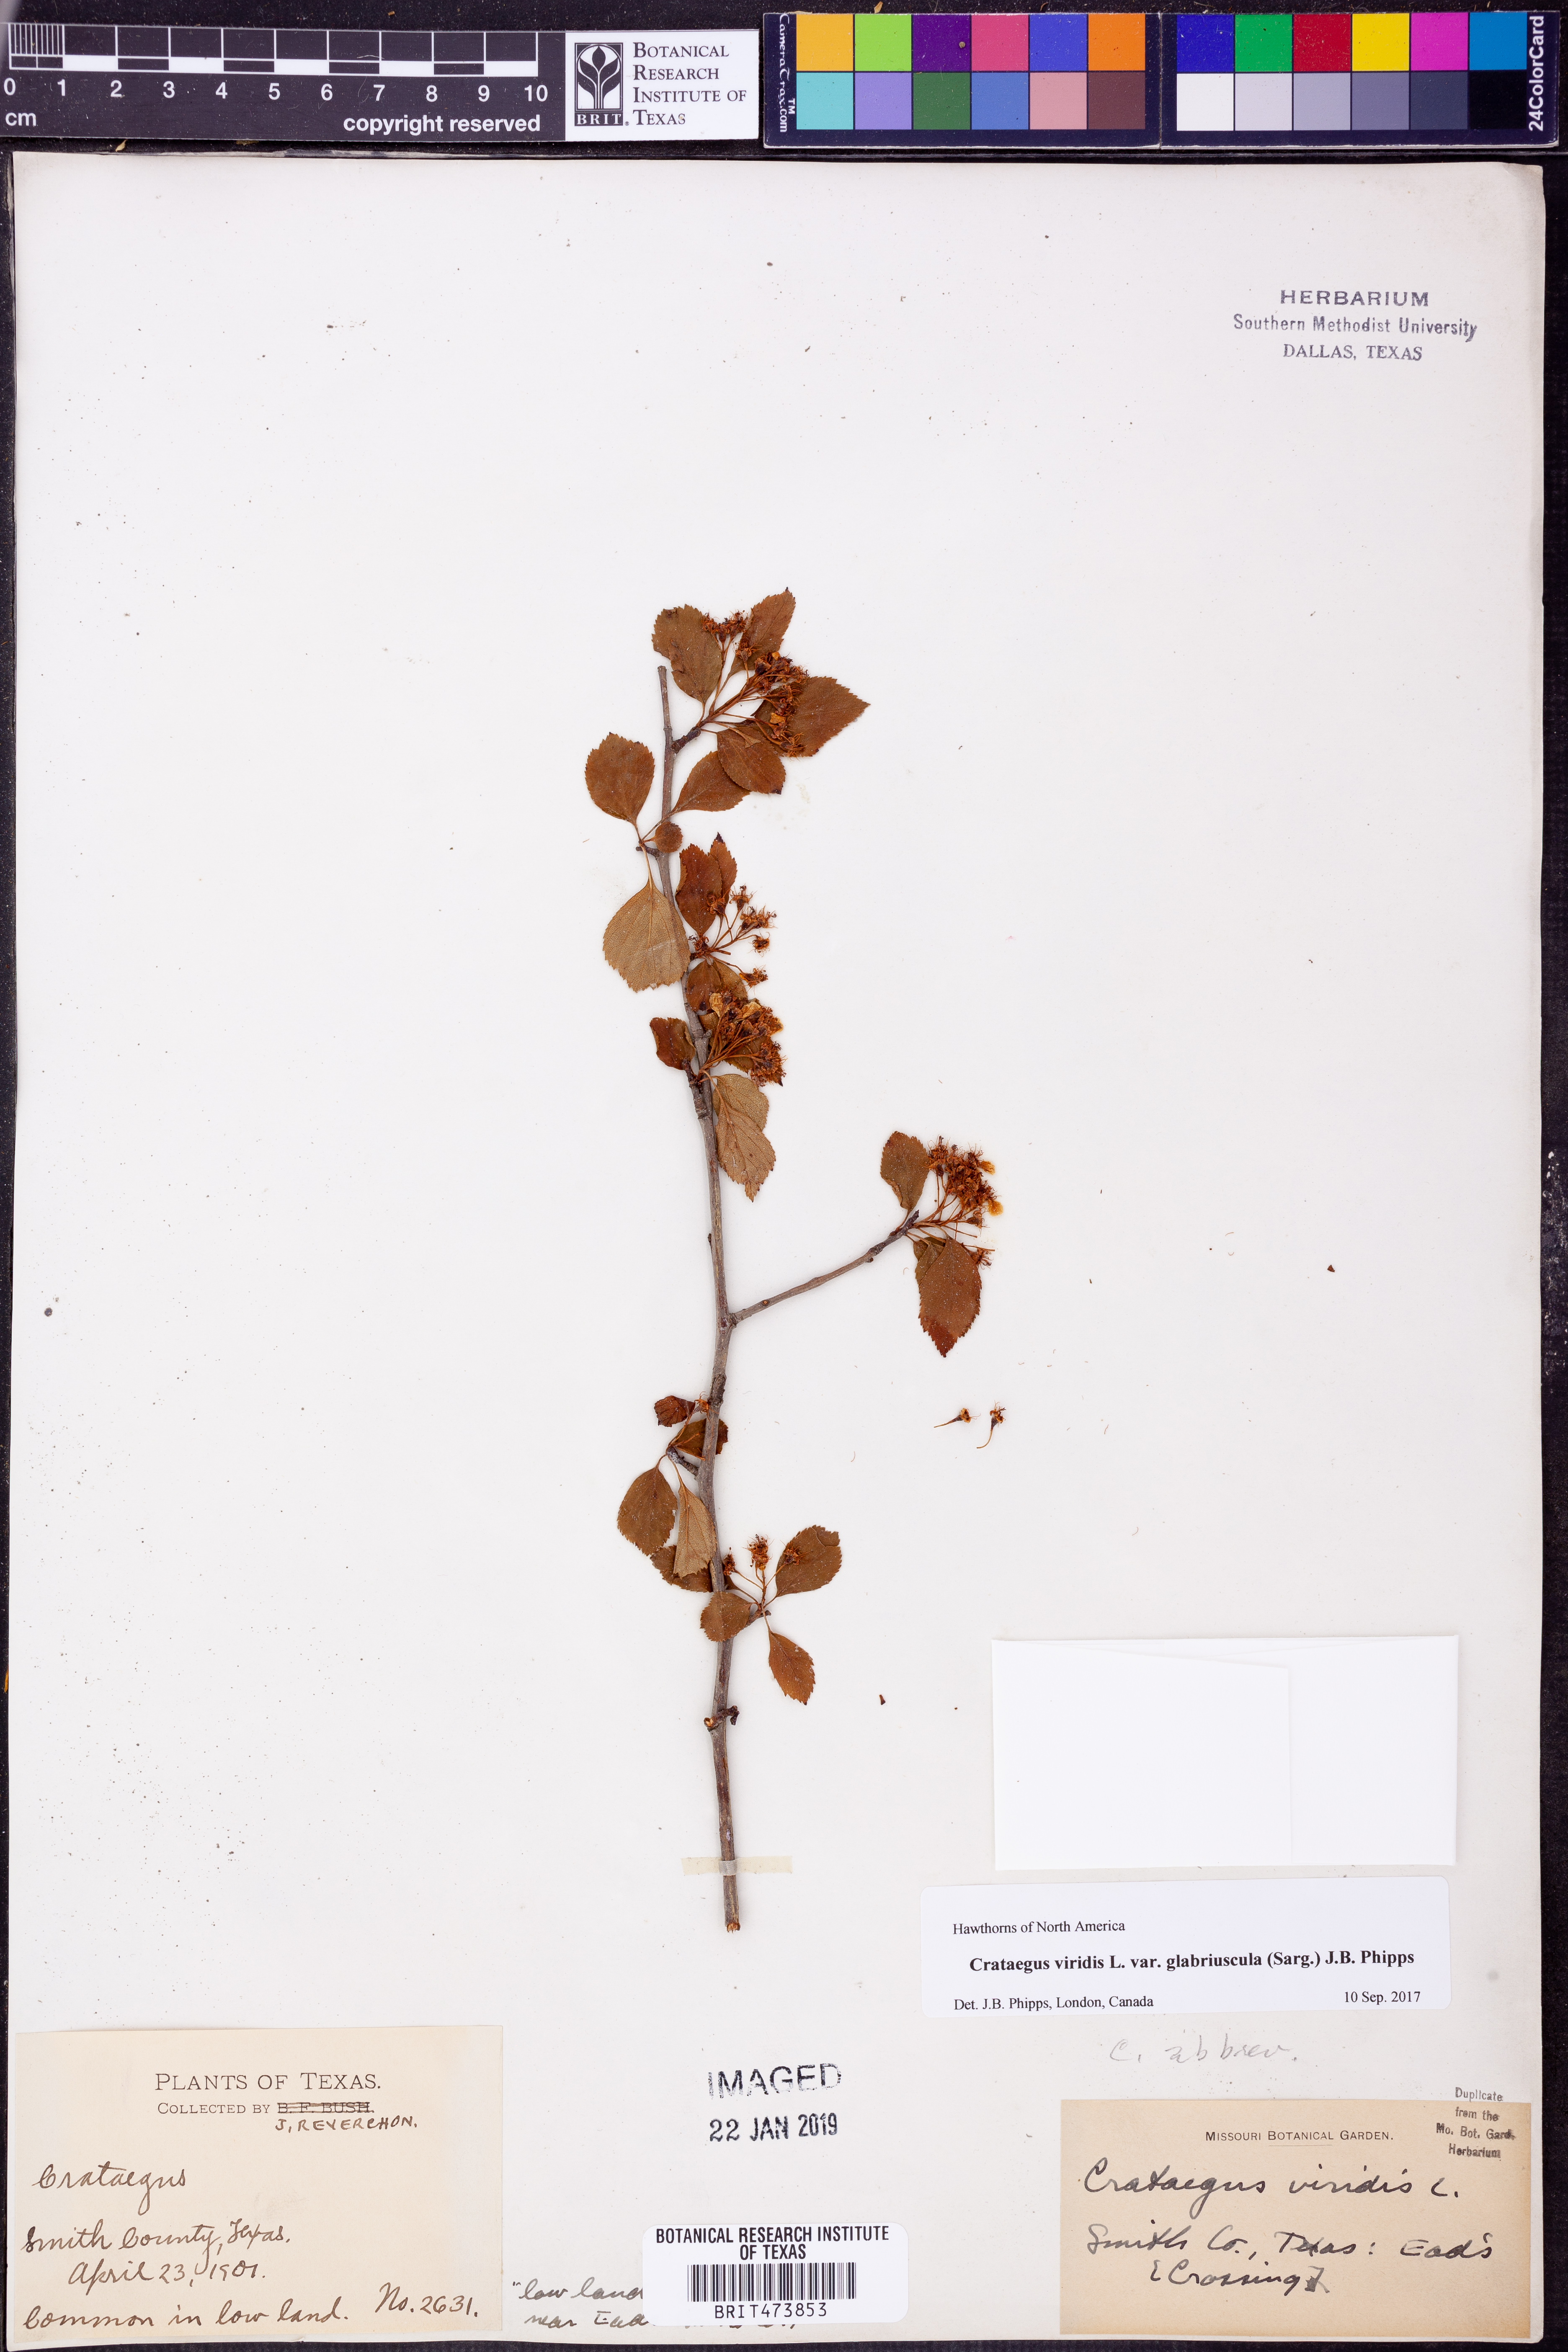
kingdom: Plantae
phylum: Tracheophyta
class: Magnoliopsida
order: Rosales
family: Rosaceae
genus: Crataegus
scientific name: Crataegus viridis
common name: Southernthorn
